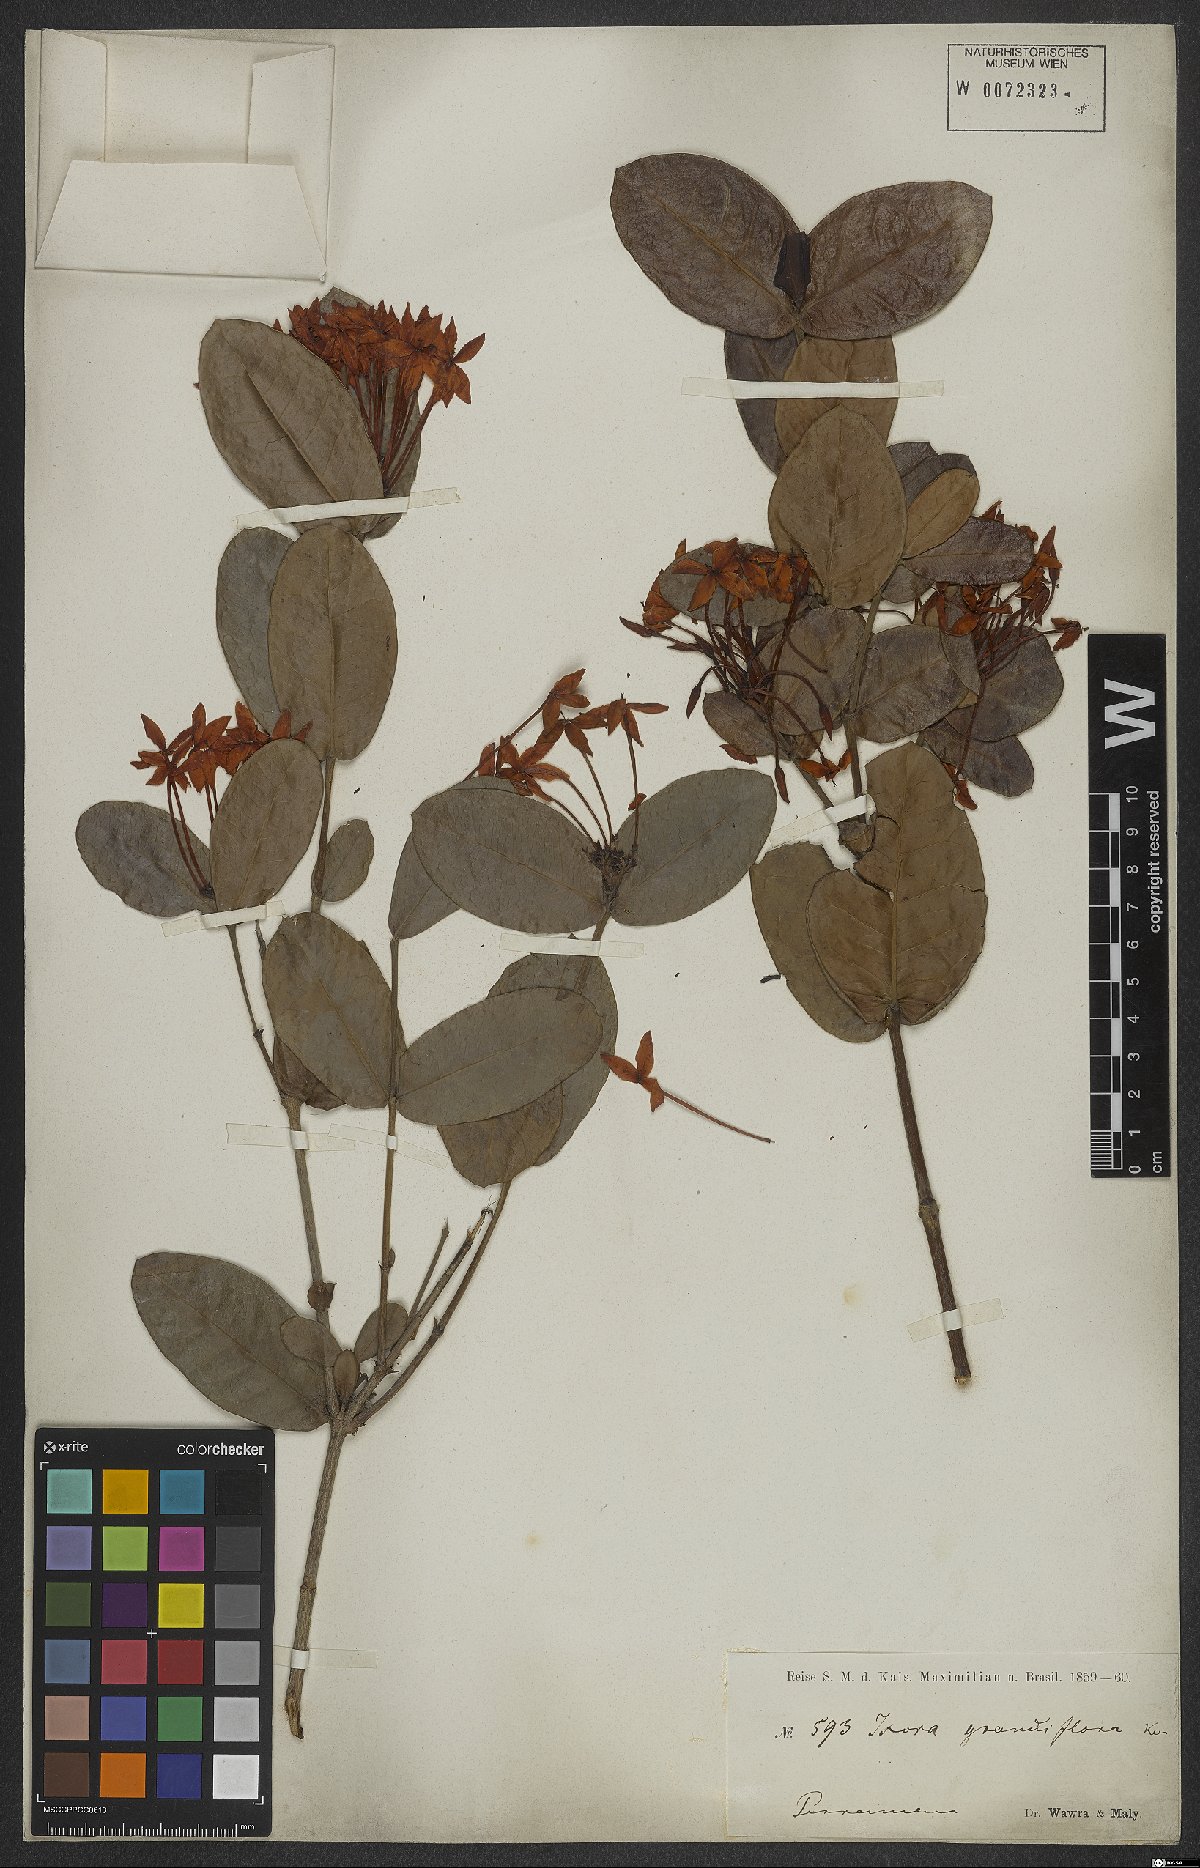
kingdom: Plantae
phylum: Tracheophyta
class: Magnoliopsida
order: Gentianales
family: Rubiaceae
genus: Ixora
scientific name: Ixora coccinea
